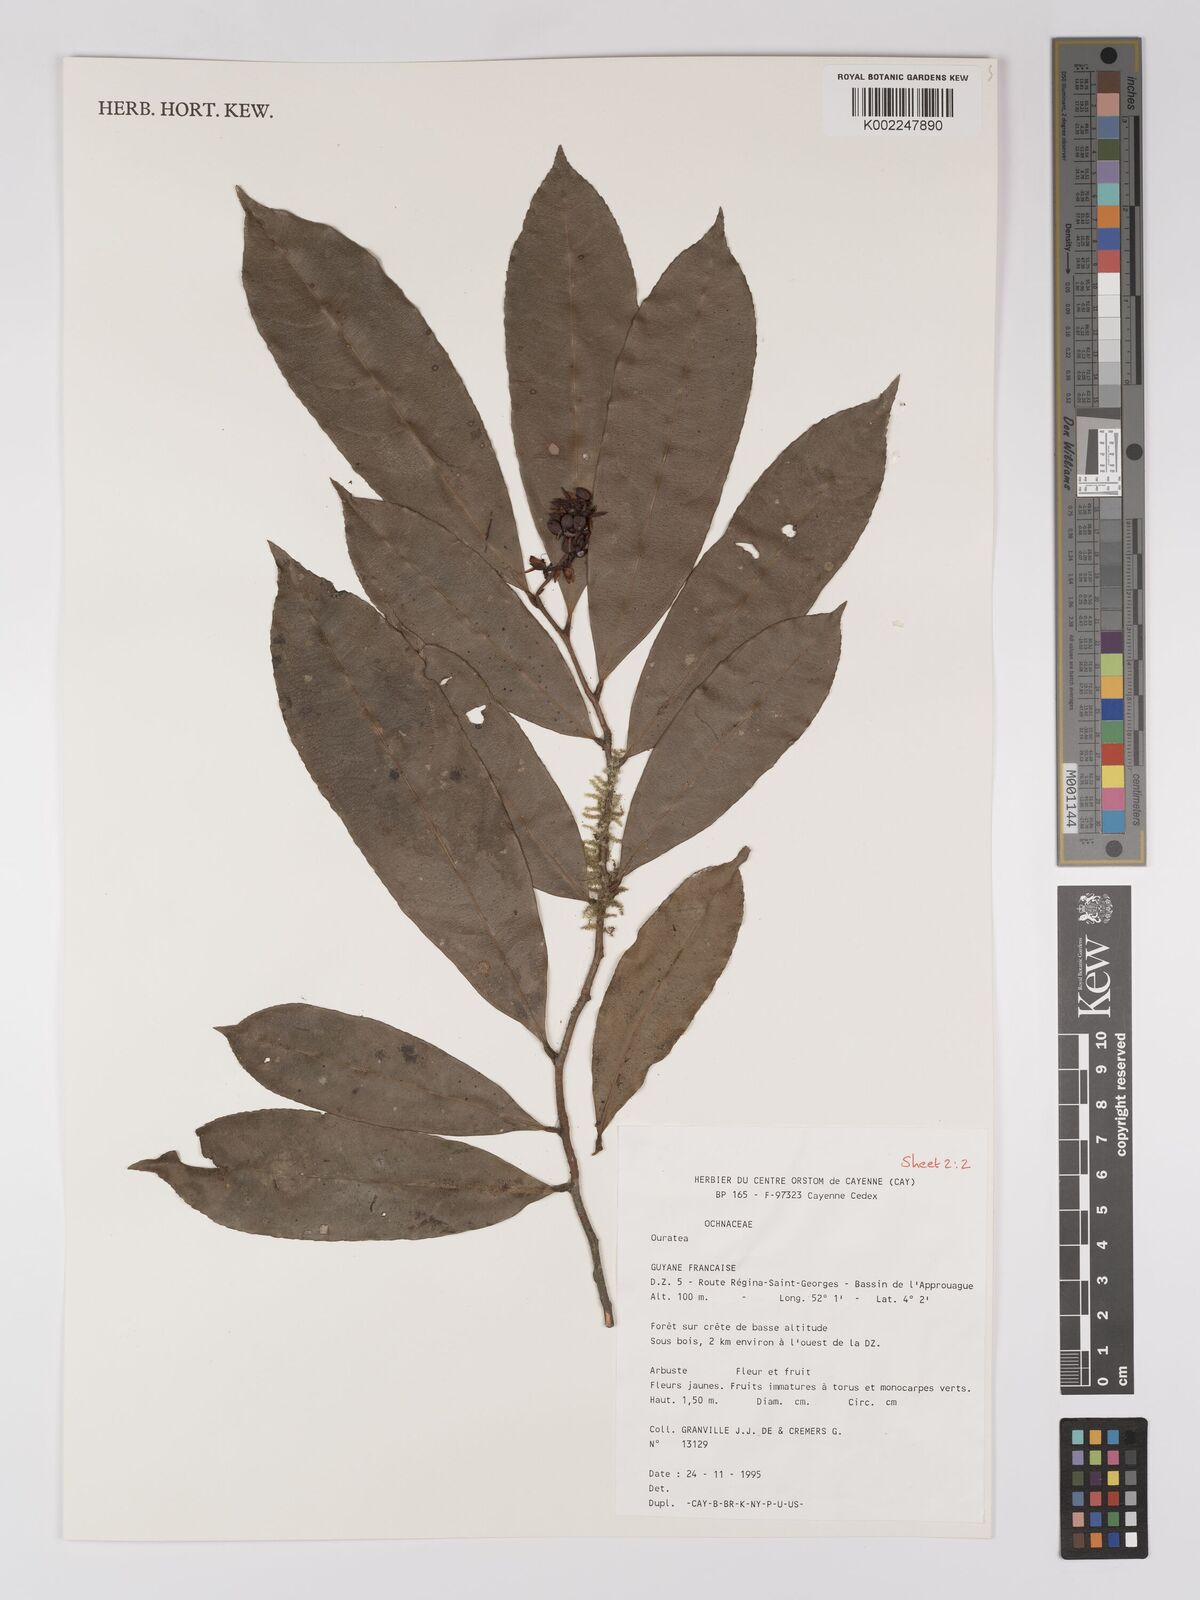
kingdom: Plantae
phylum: Tracheophyta
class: Magnoliopsida
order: Malpighiales
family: Ochnaceae
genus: Ouratea
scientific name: Ouratea
